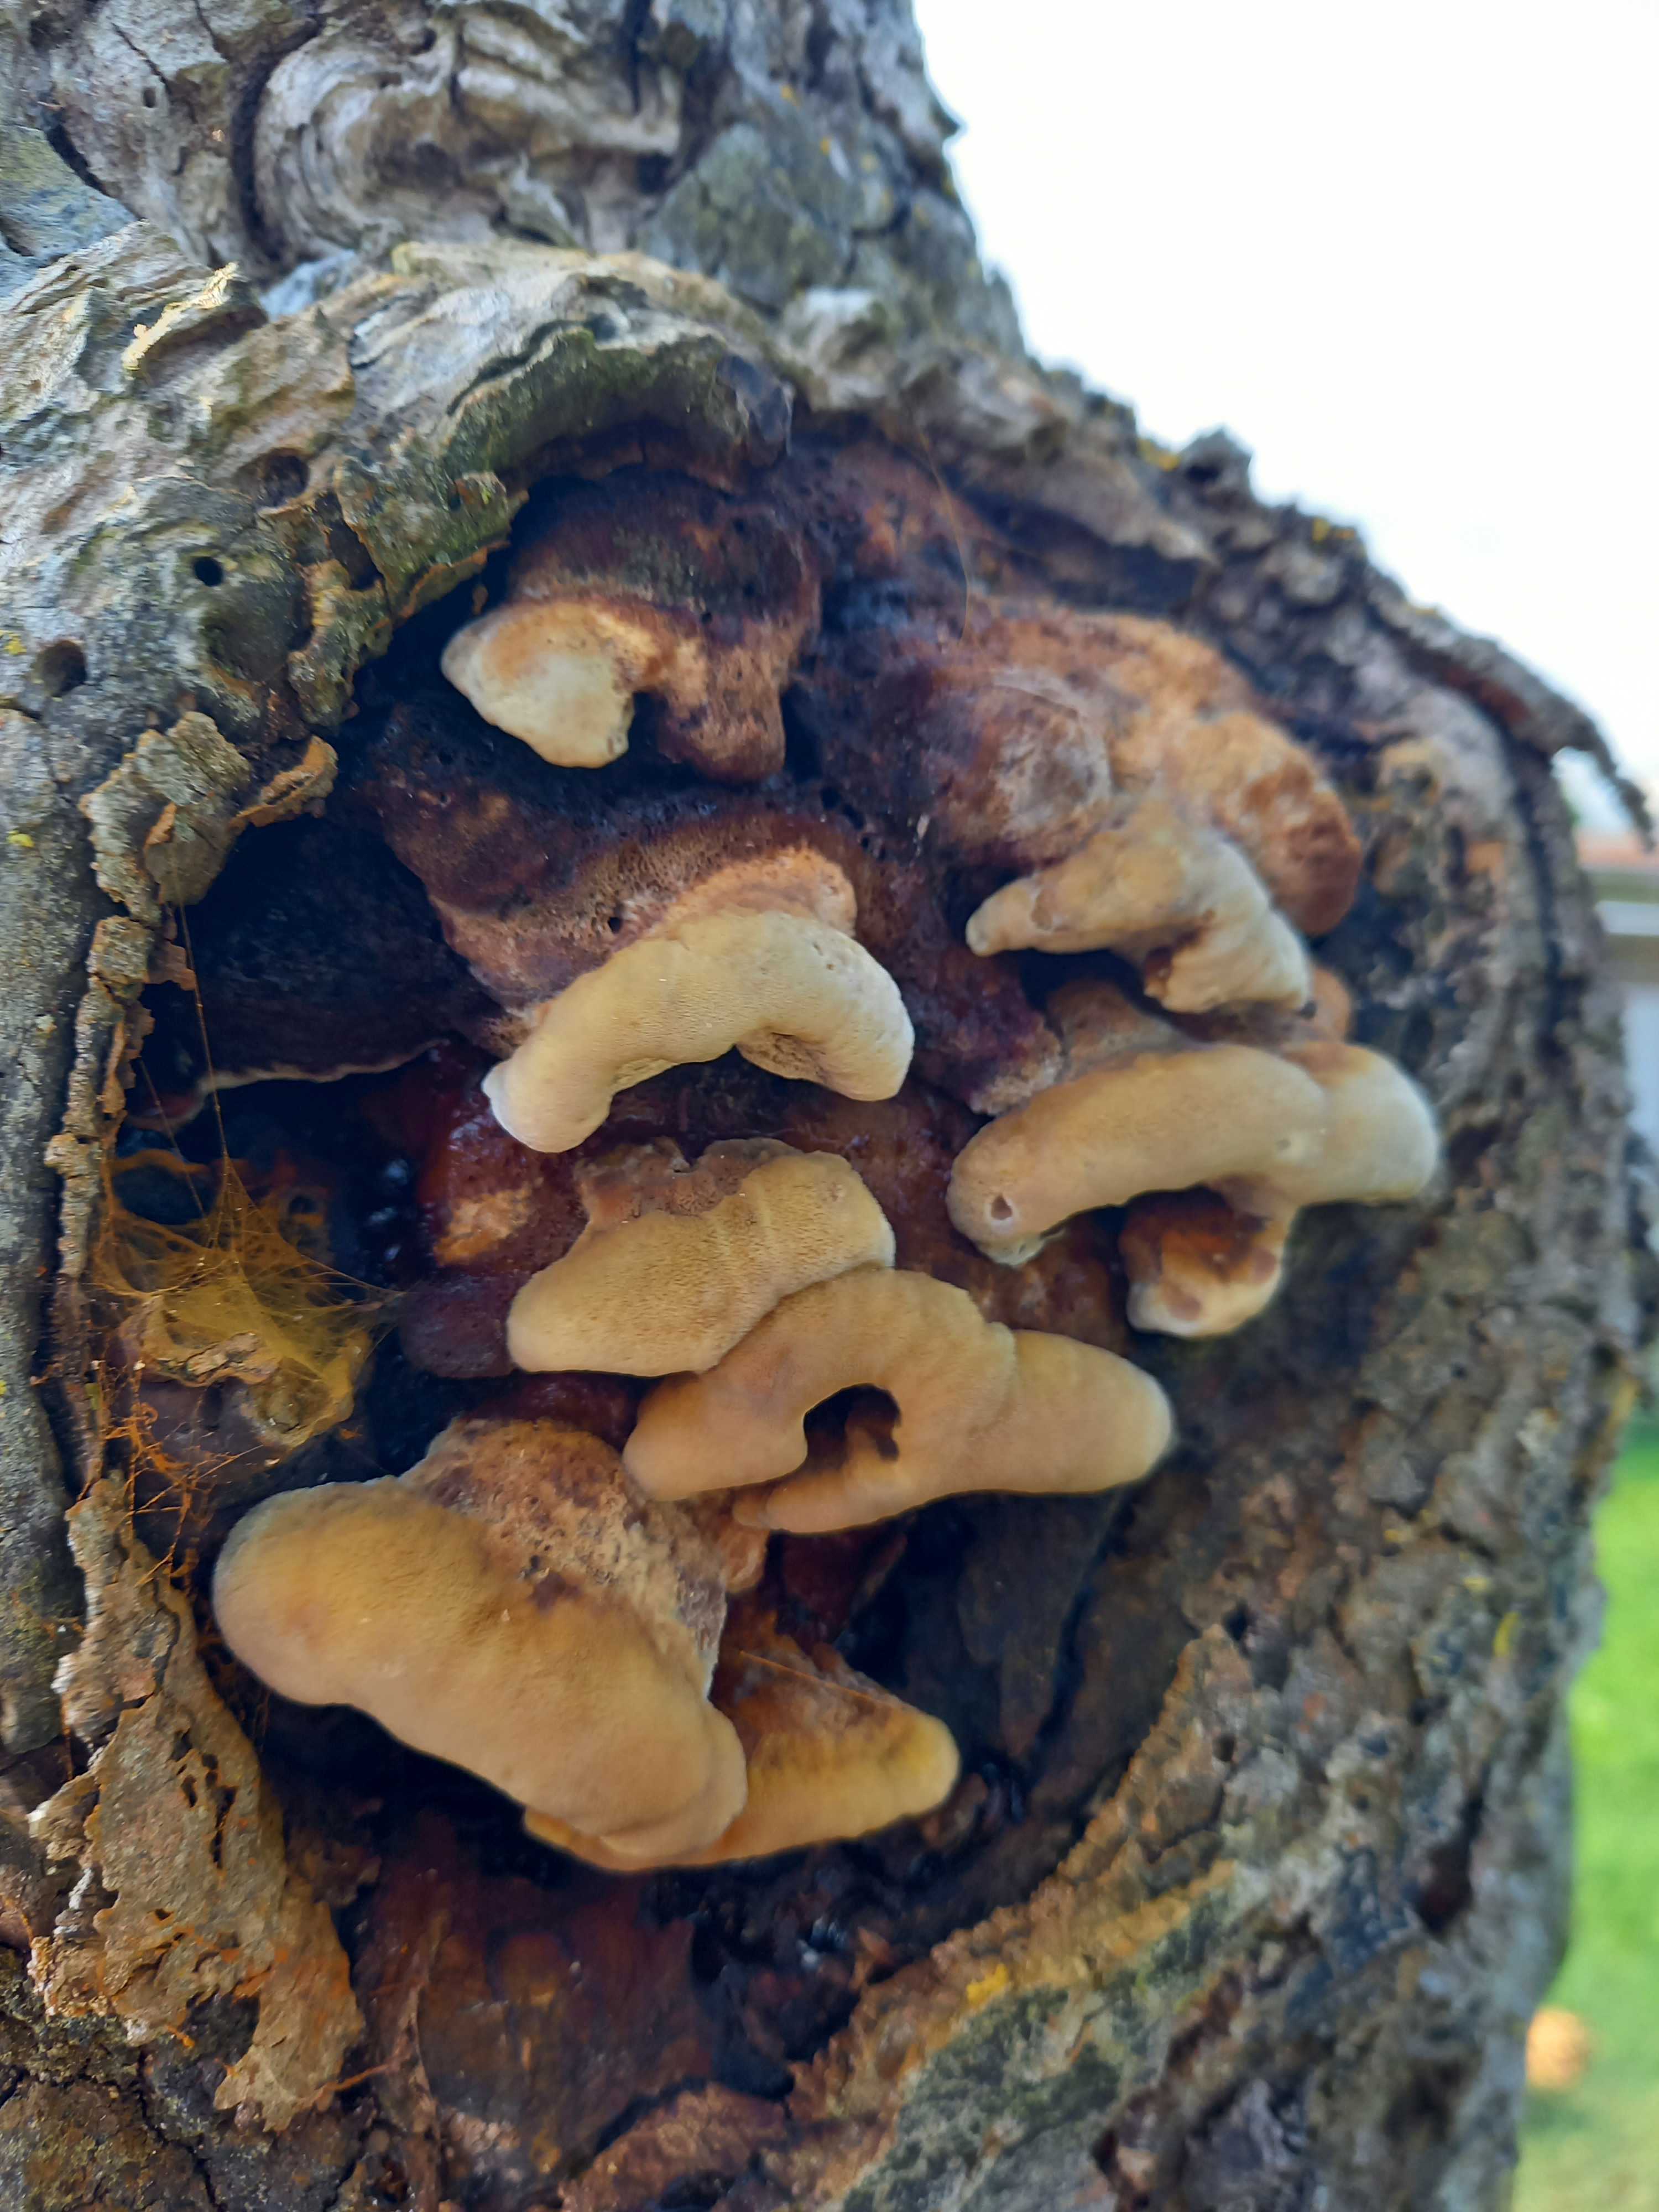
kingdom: Fungi
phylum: Basidiomycota
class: Agaricomycetes
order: Hymenochaetales
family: Hymenochaetaceae
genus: Inonotus
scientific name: Inonotus cuticularis
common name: kroghåret spejlporesvamp
